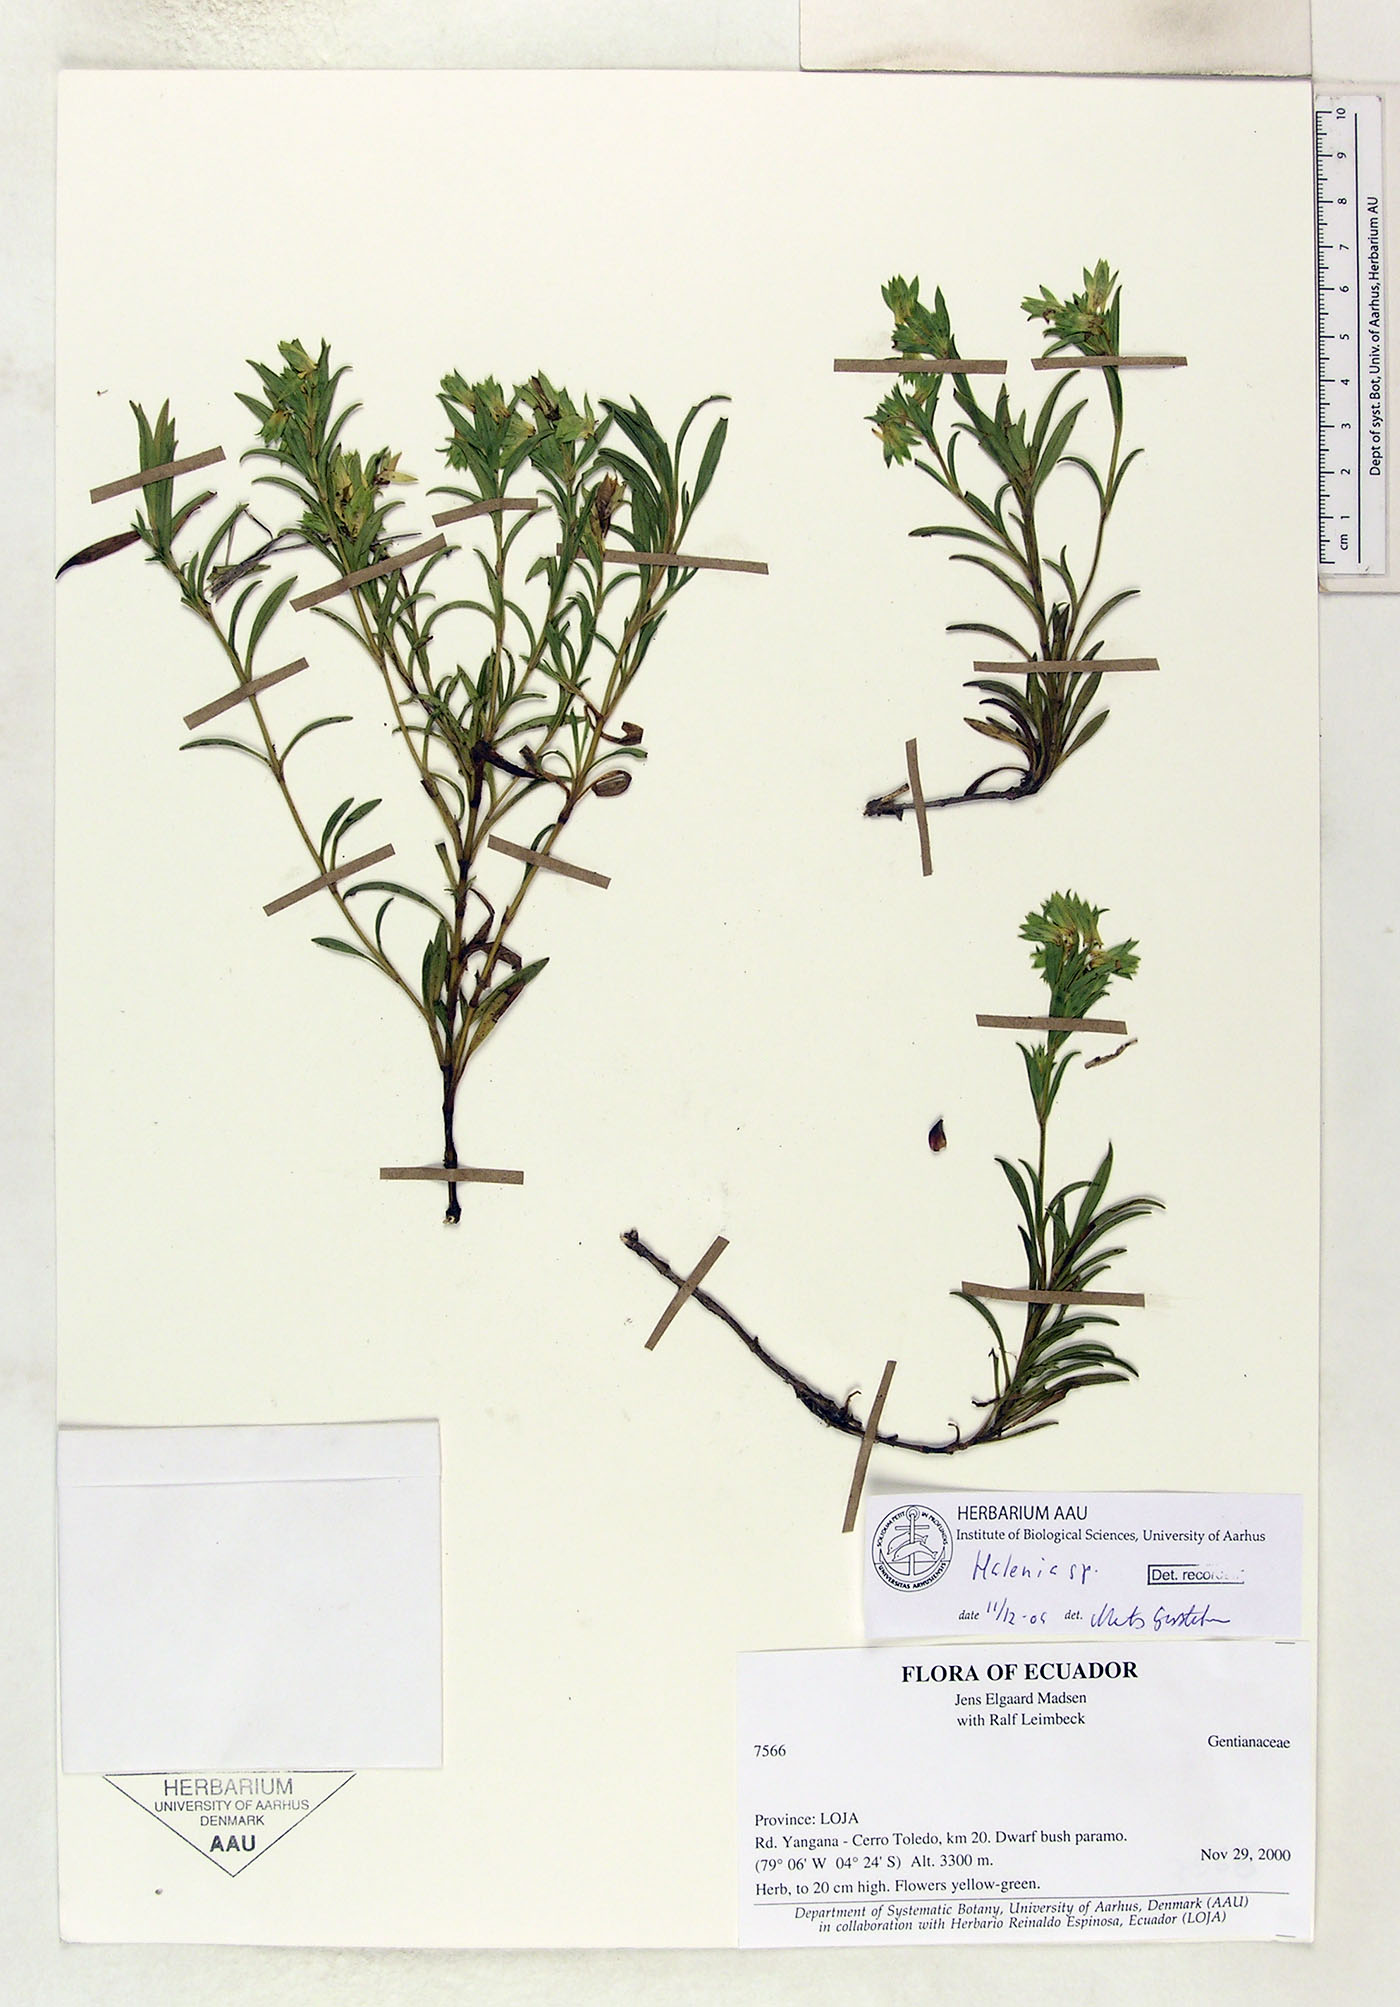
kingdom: Plantae
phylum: Tracheophyta
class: Magnoliopsida
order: Gentianales
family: Gentianaceae
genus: Halenia
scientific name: Halenia
